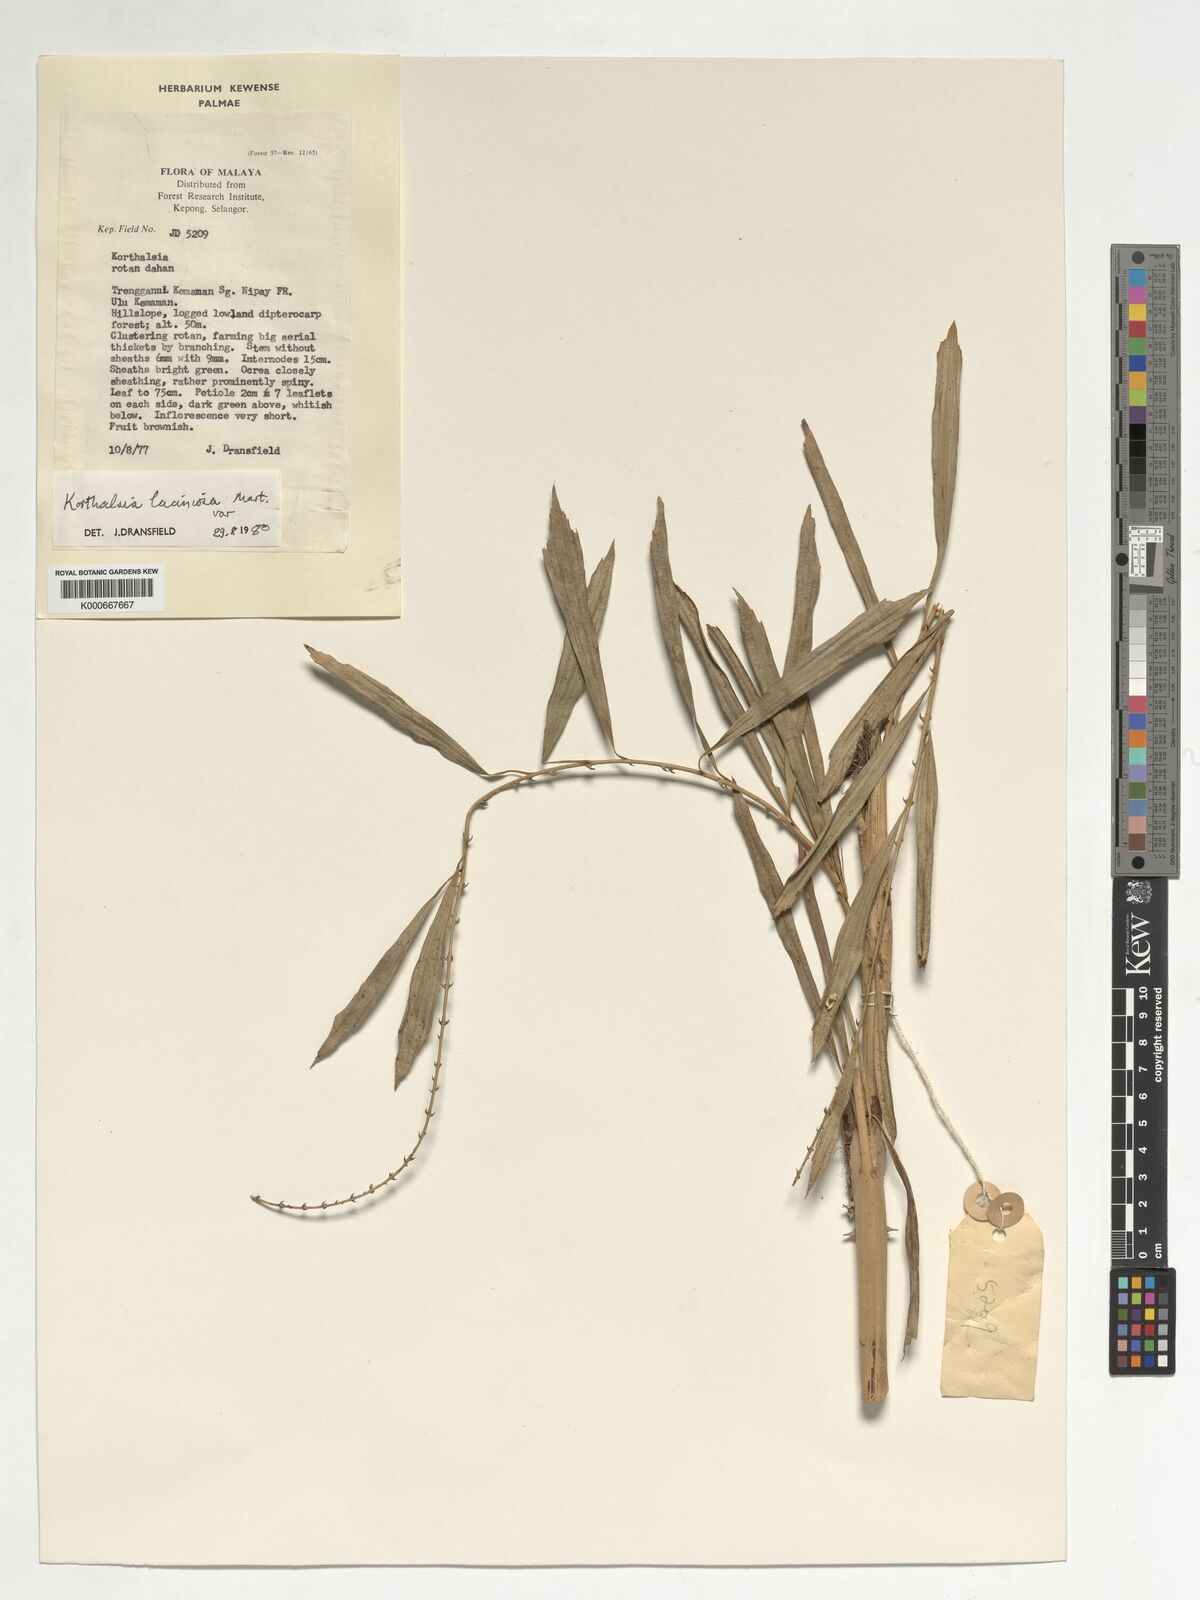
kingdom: Plantae
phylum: Tracheophyta
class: Liliopsida
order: Arecales
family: Arecaceae
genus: Korthalsia
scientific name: Korthalsia laciniosa
